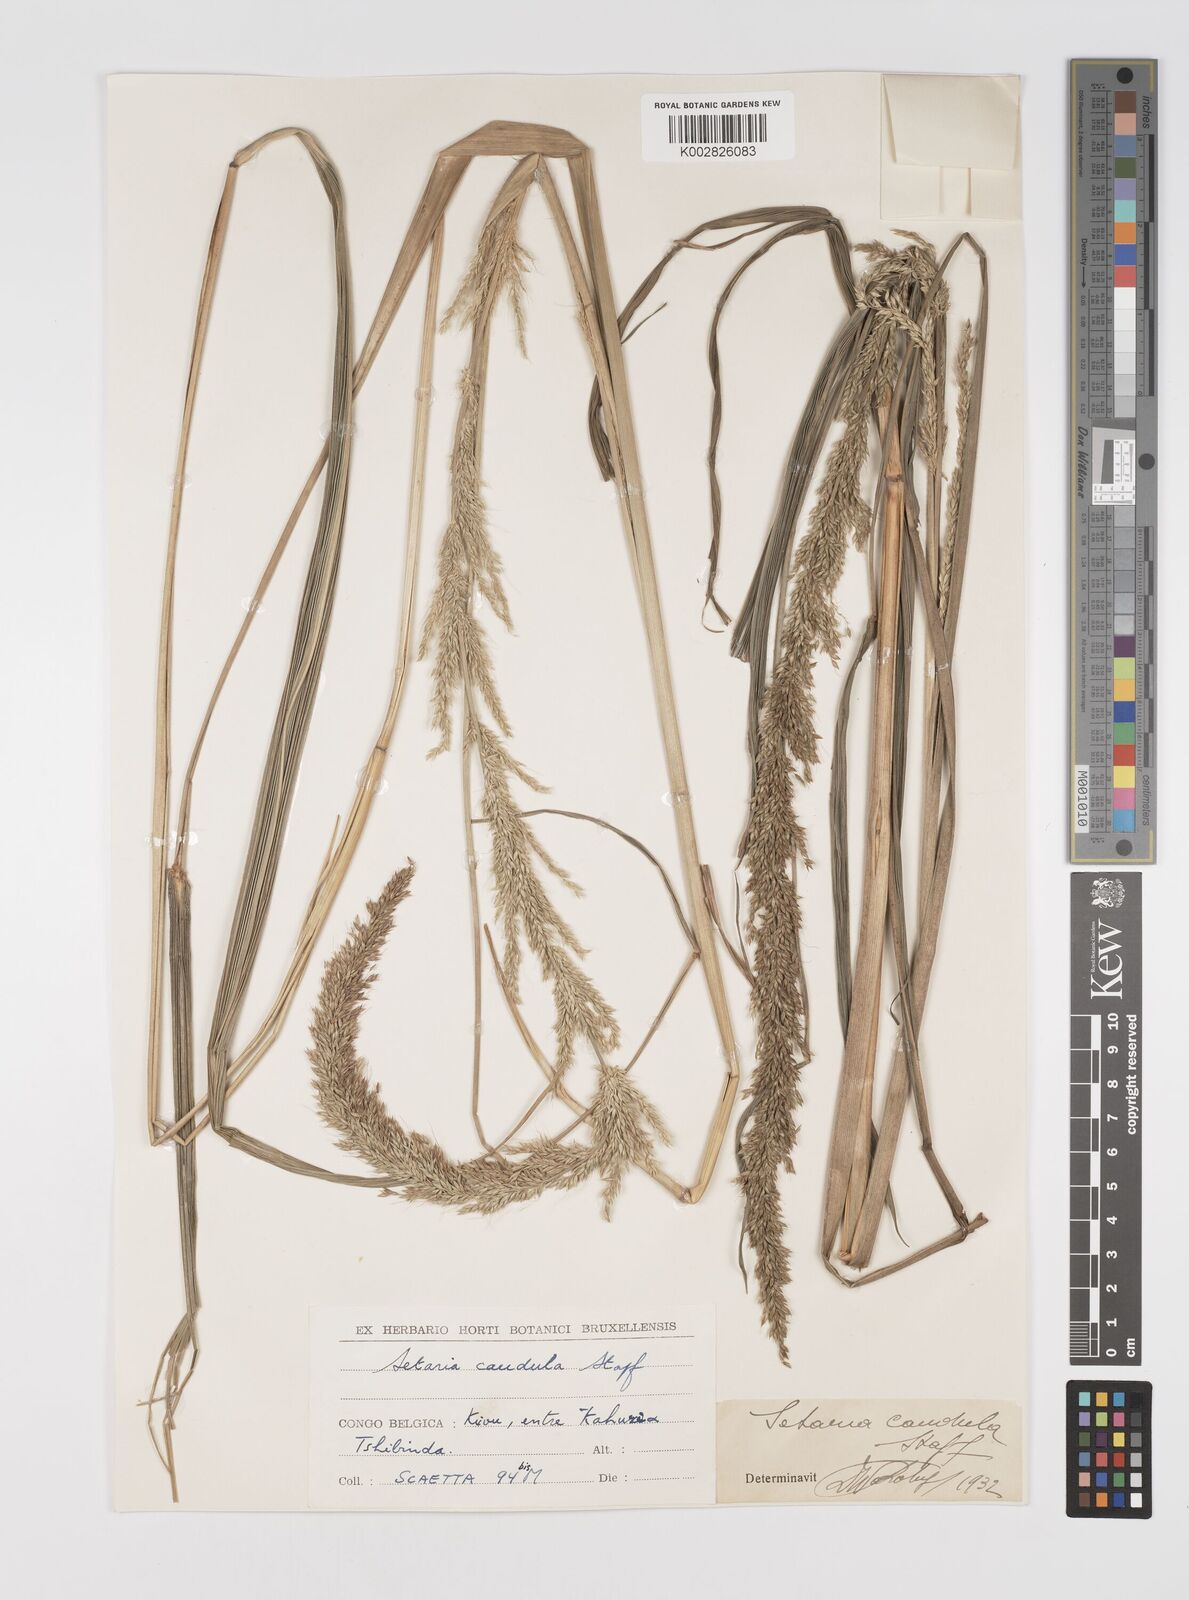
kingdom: Plantae
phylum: Tracheophyta
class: Liliopsida
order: Poales
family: Poaceae
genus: Setaria
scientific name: Setaria poiretiana
